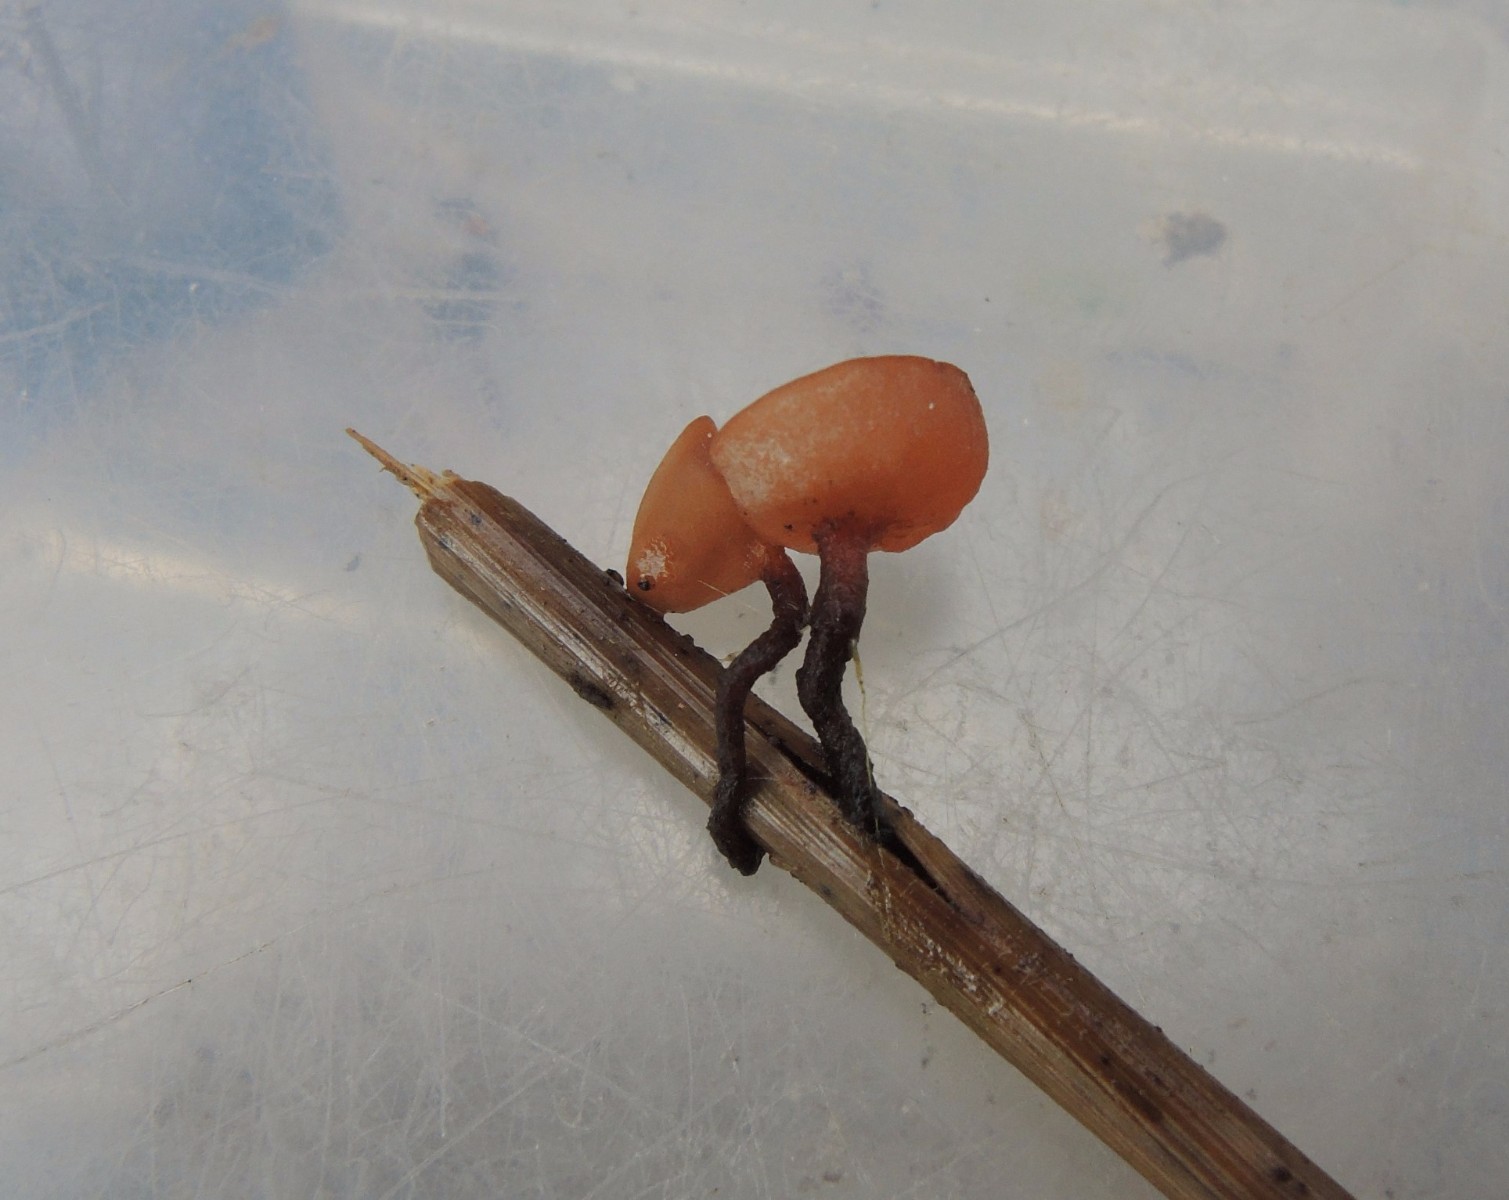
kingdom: Fungi
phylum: Ascomycota
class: Leotiomycetes
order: Helotiales
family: Sclerotiniaceae
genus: Myriosclerotinia
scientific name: Myriosclerotinia curreyana
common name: siv-knoldskive
